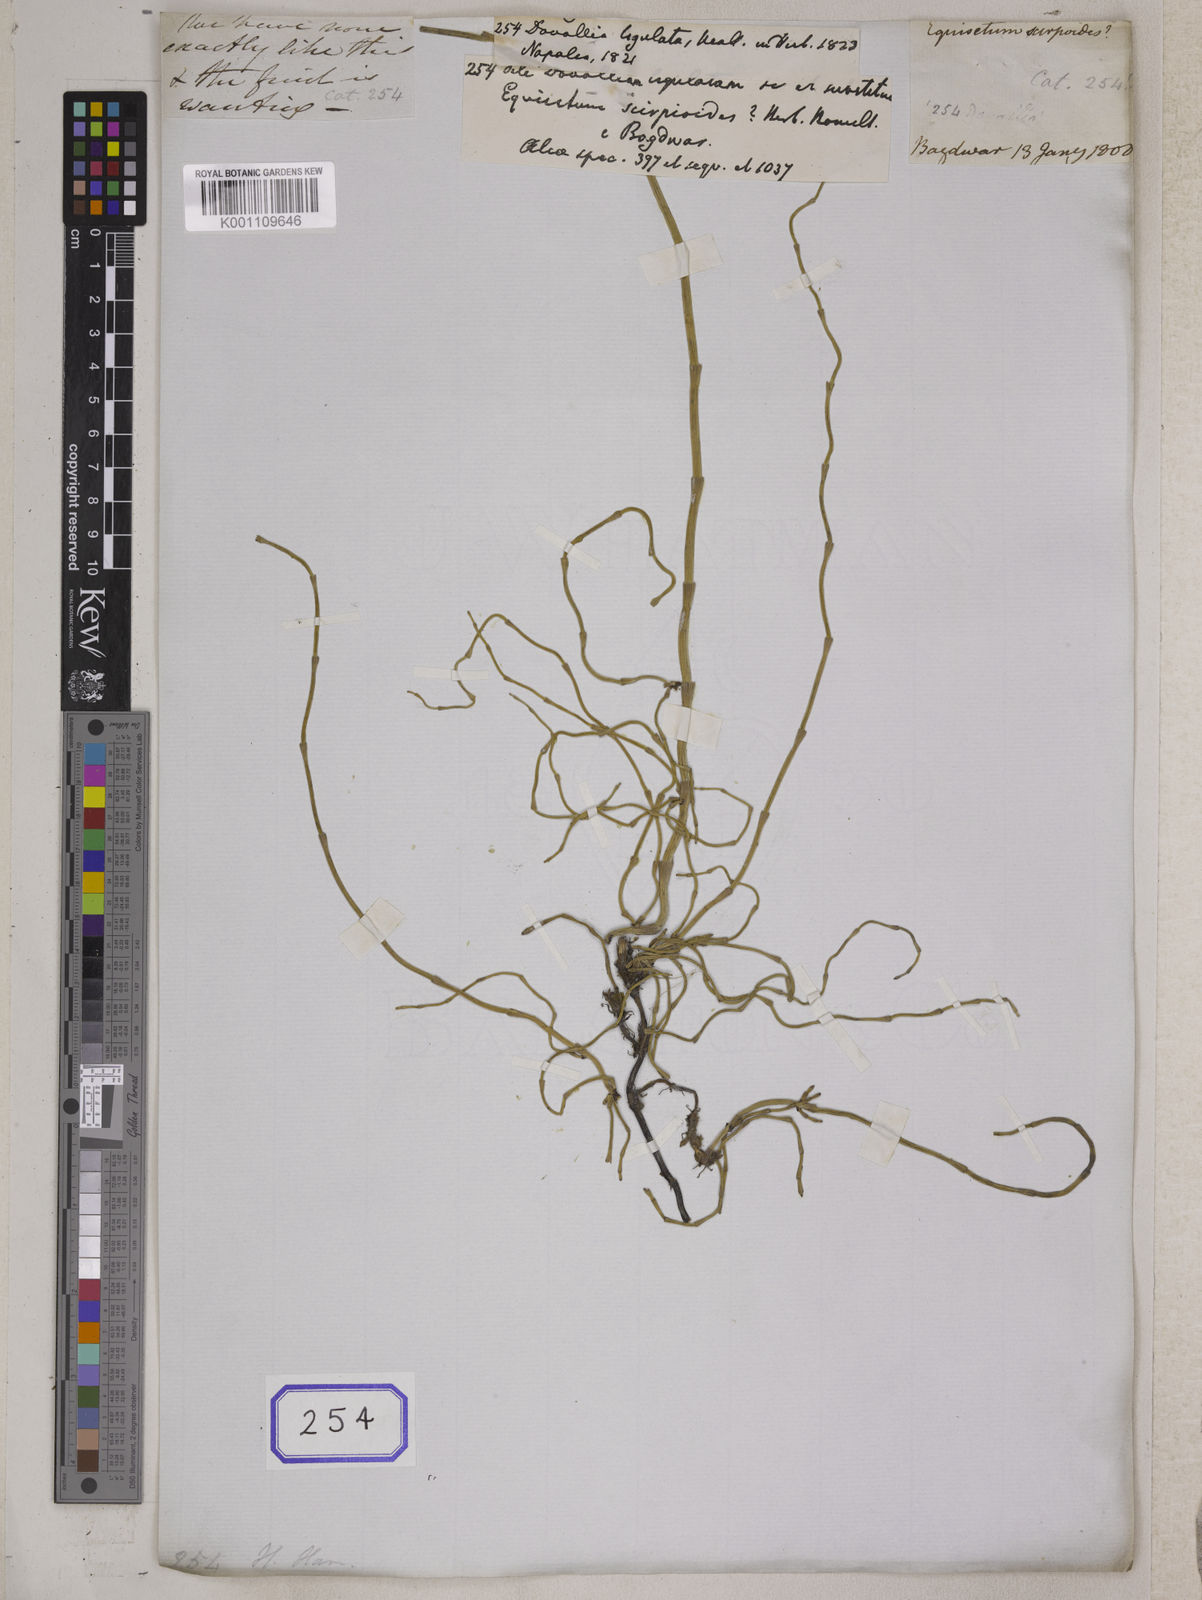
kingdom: Plantae
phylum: Tracheophyta
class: Polypodiopsida
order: Equisetales
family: Equisetaceae
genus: Equisetum
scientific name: Equisetum scirpoides
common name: Delicate horsetail
